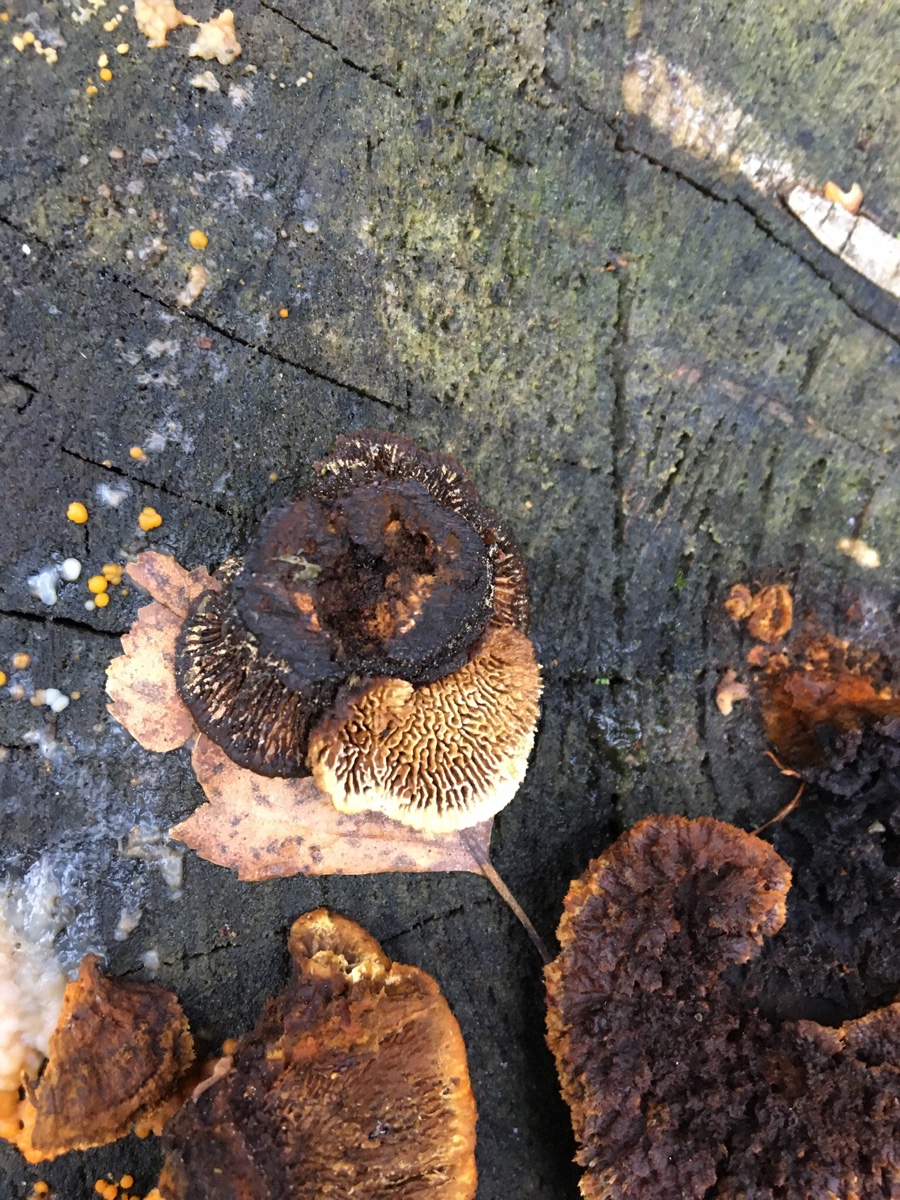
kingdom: Fungi
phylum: Basidiomycota
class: Agaricomycetes
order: Gloeophyllales
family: Gloeophyllaceae
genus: Gloeophyllum
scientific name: Gloeophyllum sepiarium
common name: fyrre-korkhat
